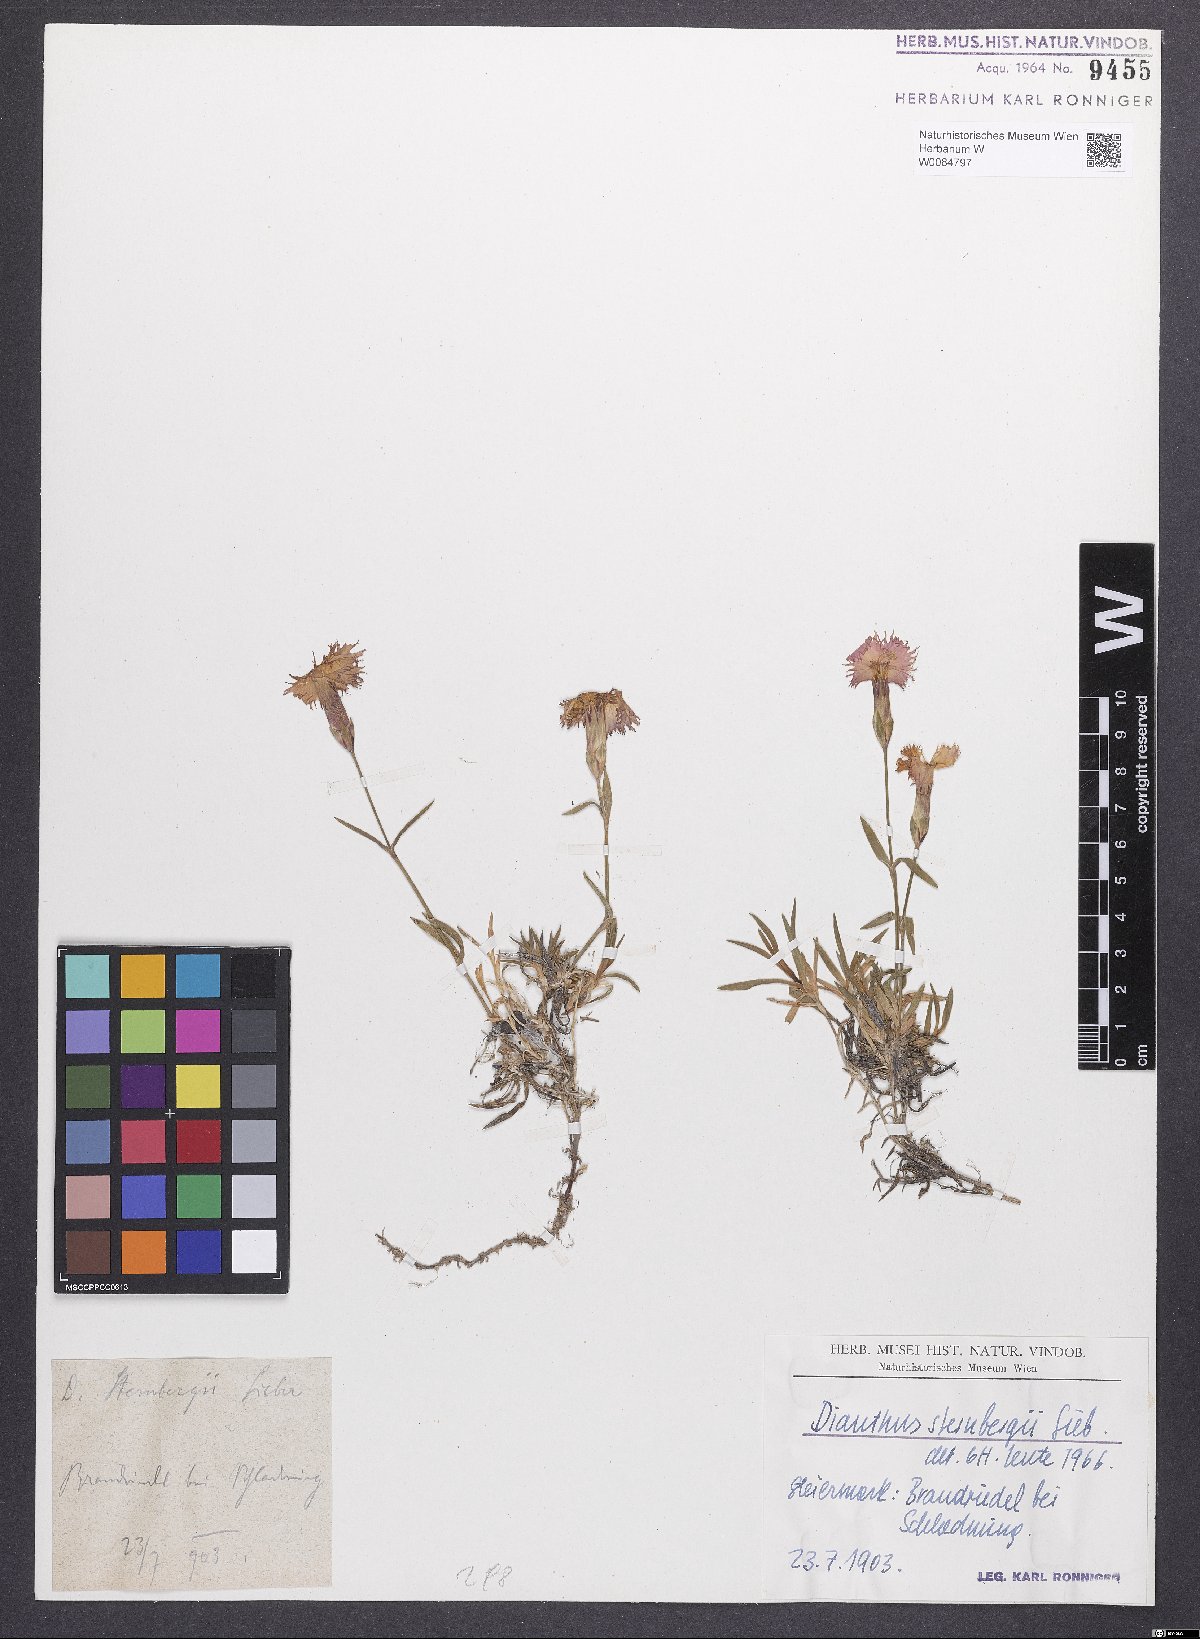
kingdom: Plantae
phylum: Tracheophyta
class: Magnoliopsida
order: Caryophyllales
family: Caryophyllaceae
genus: Dianthus
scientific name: Dianthus monspessulanus
